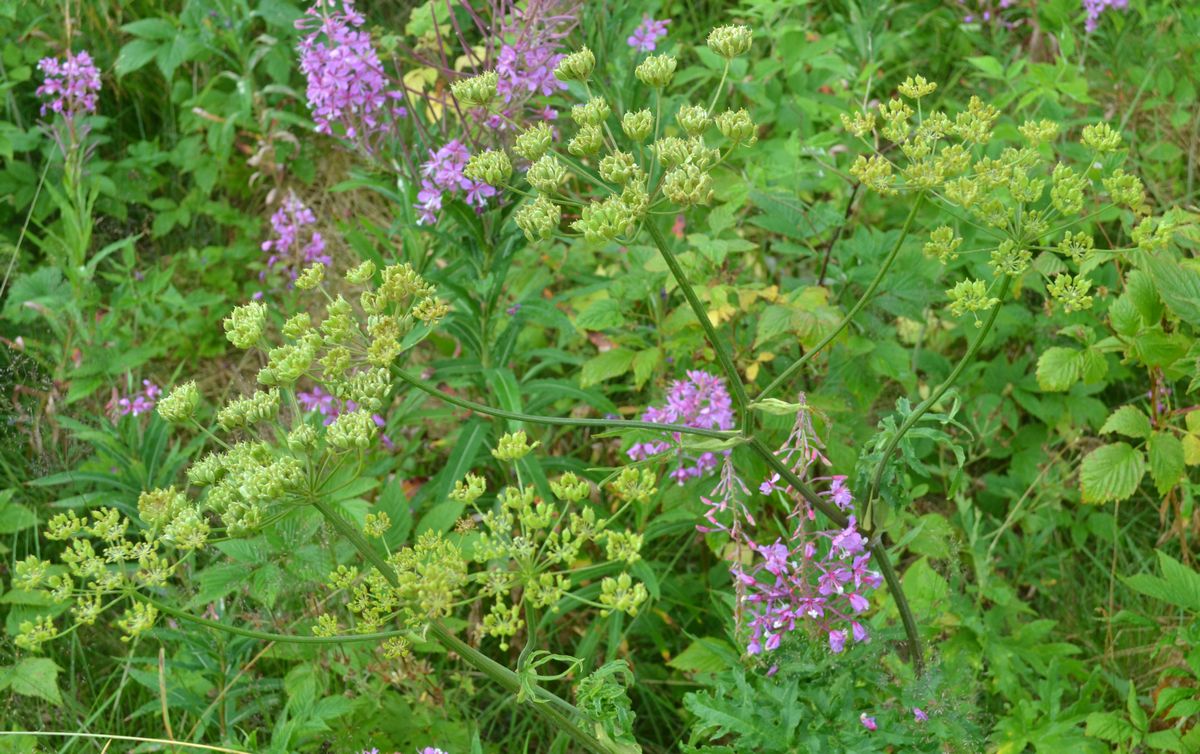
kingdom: Plantae
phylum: Tracheophyta
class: Magnoliopsida
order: Apiales
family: Apiaceae
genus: Heracleum
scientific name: Heracleum sphondylium
